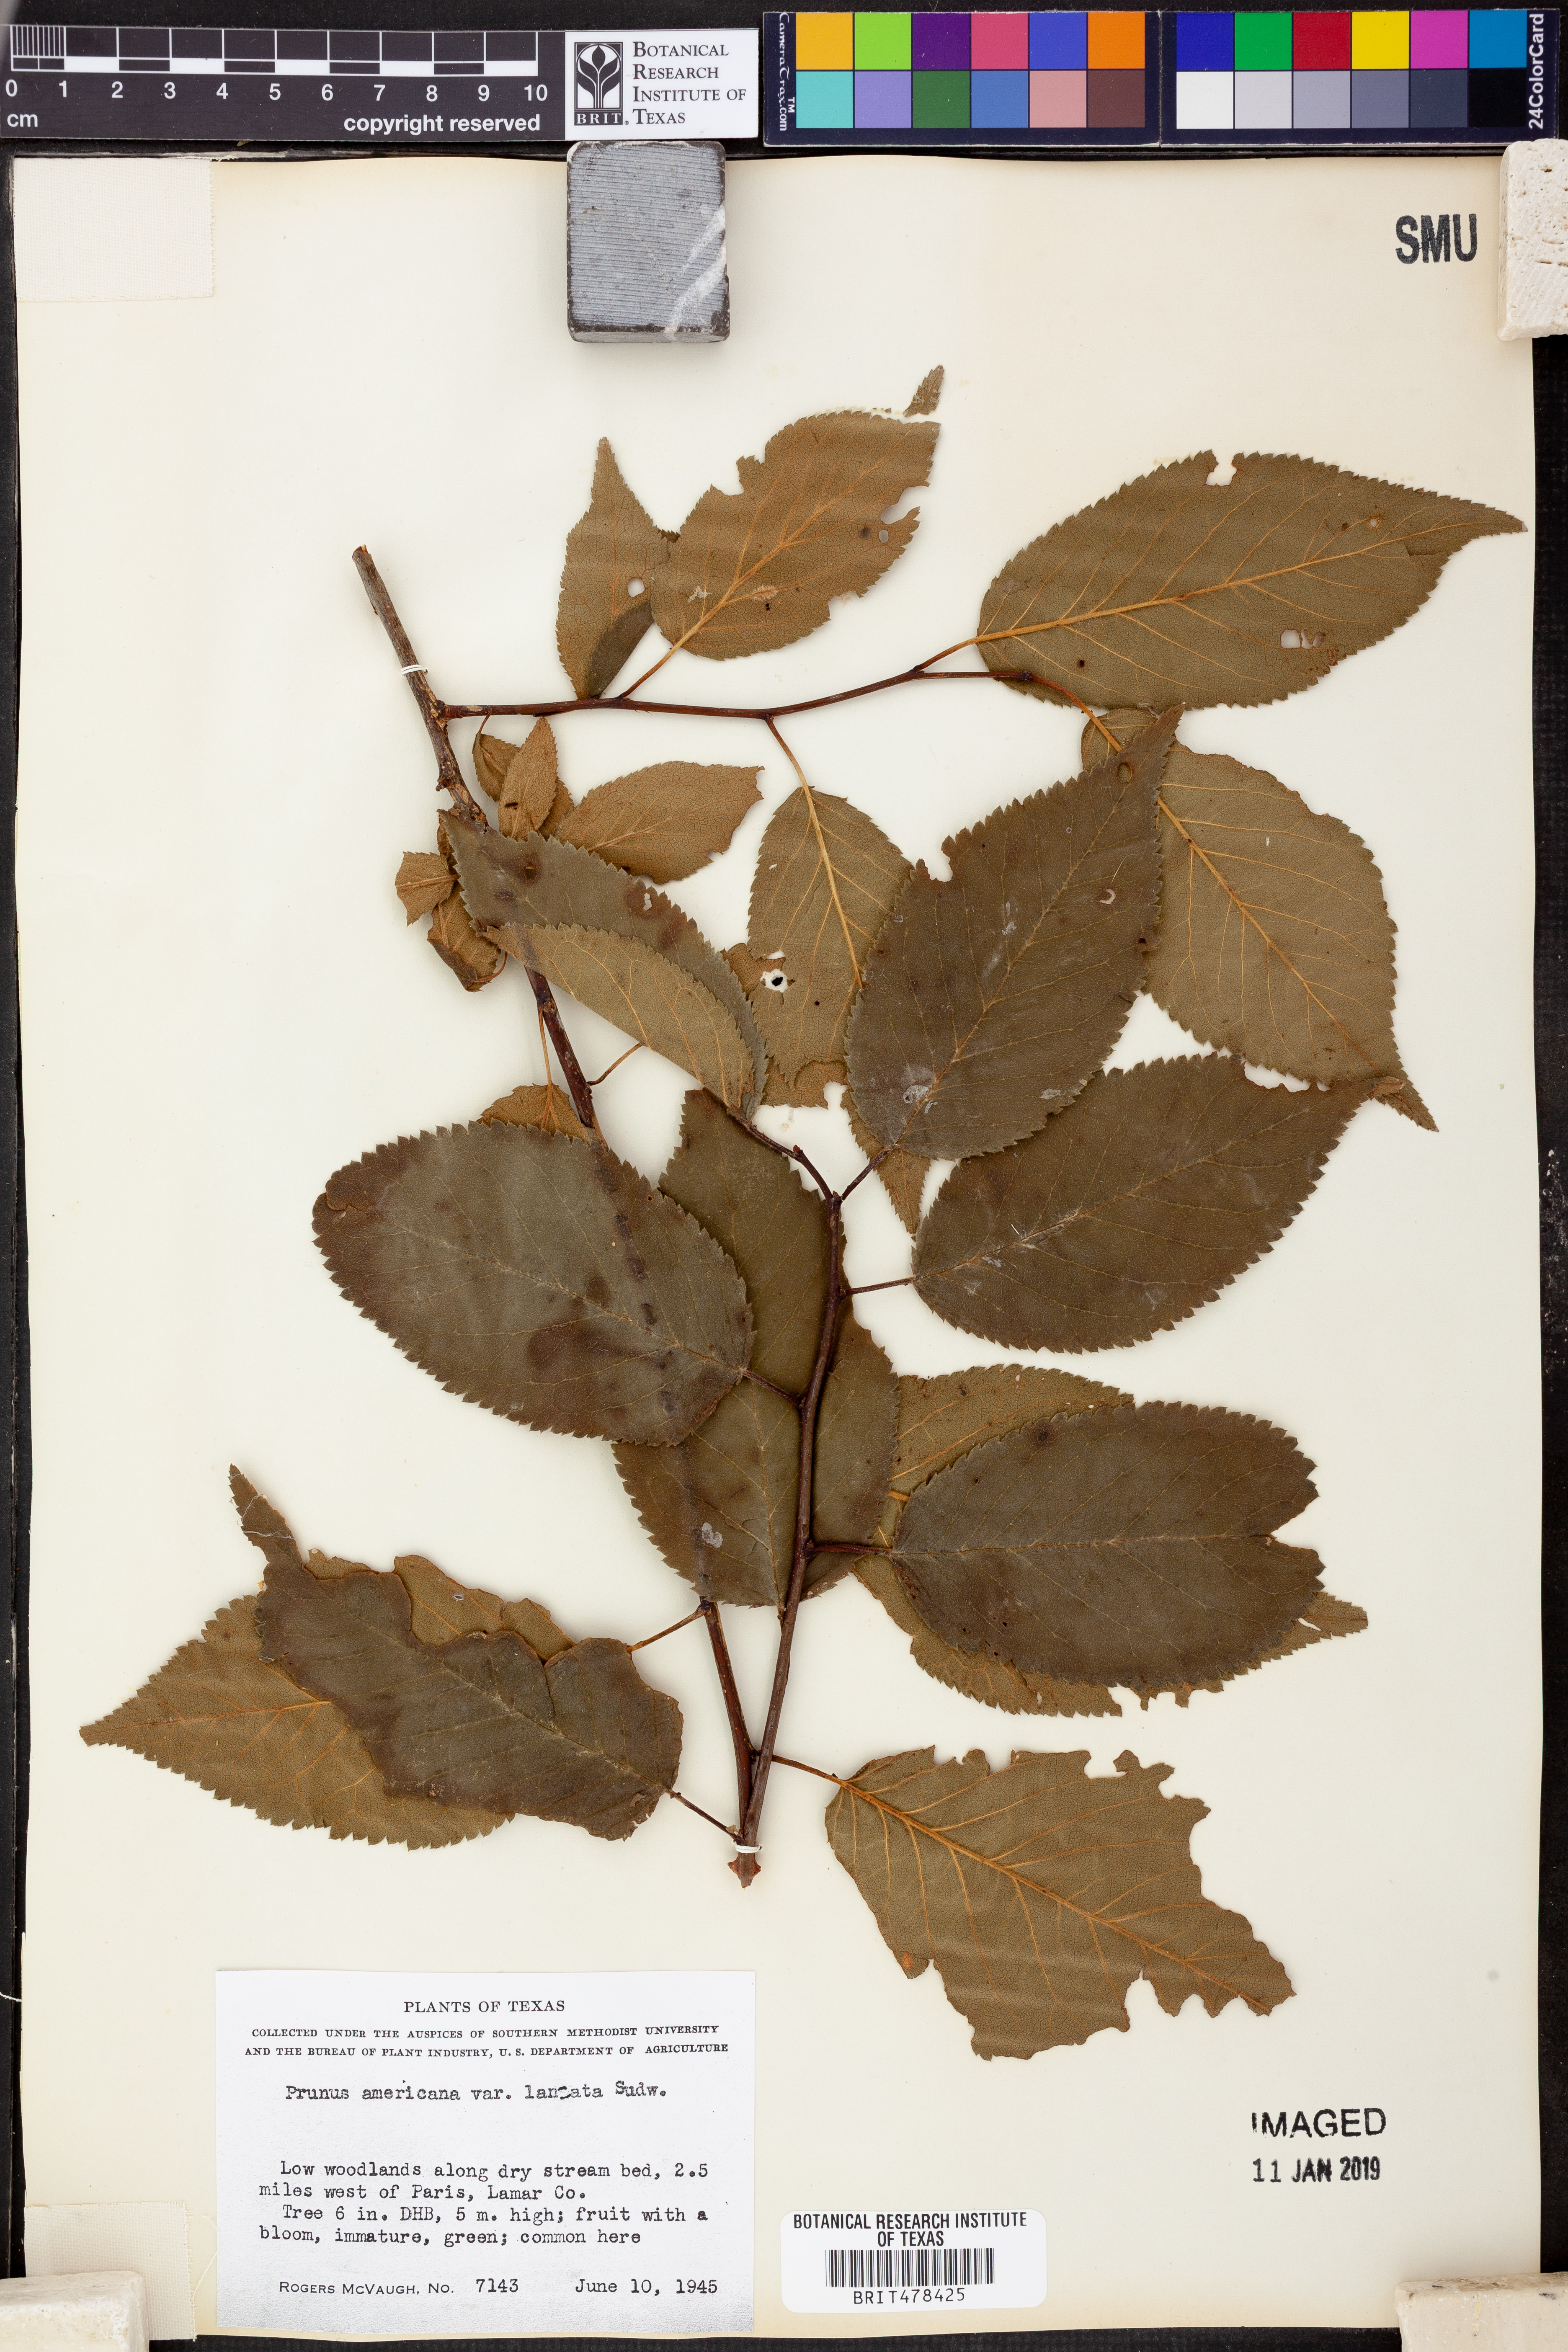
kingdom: Plantae
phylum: Tracheophyta
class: Magnoliopsida
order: Rosales
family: Rosaceae
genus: Prunus
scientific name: Prunus mexicana
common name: Mexican plum
